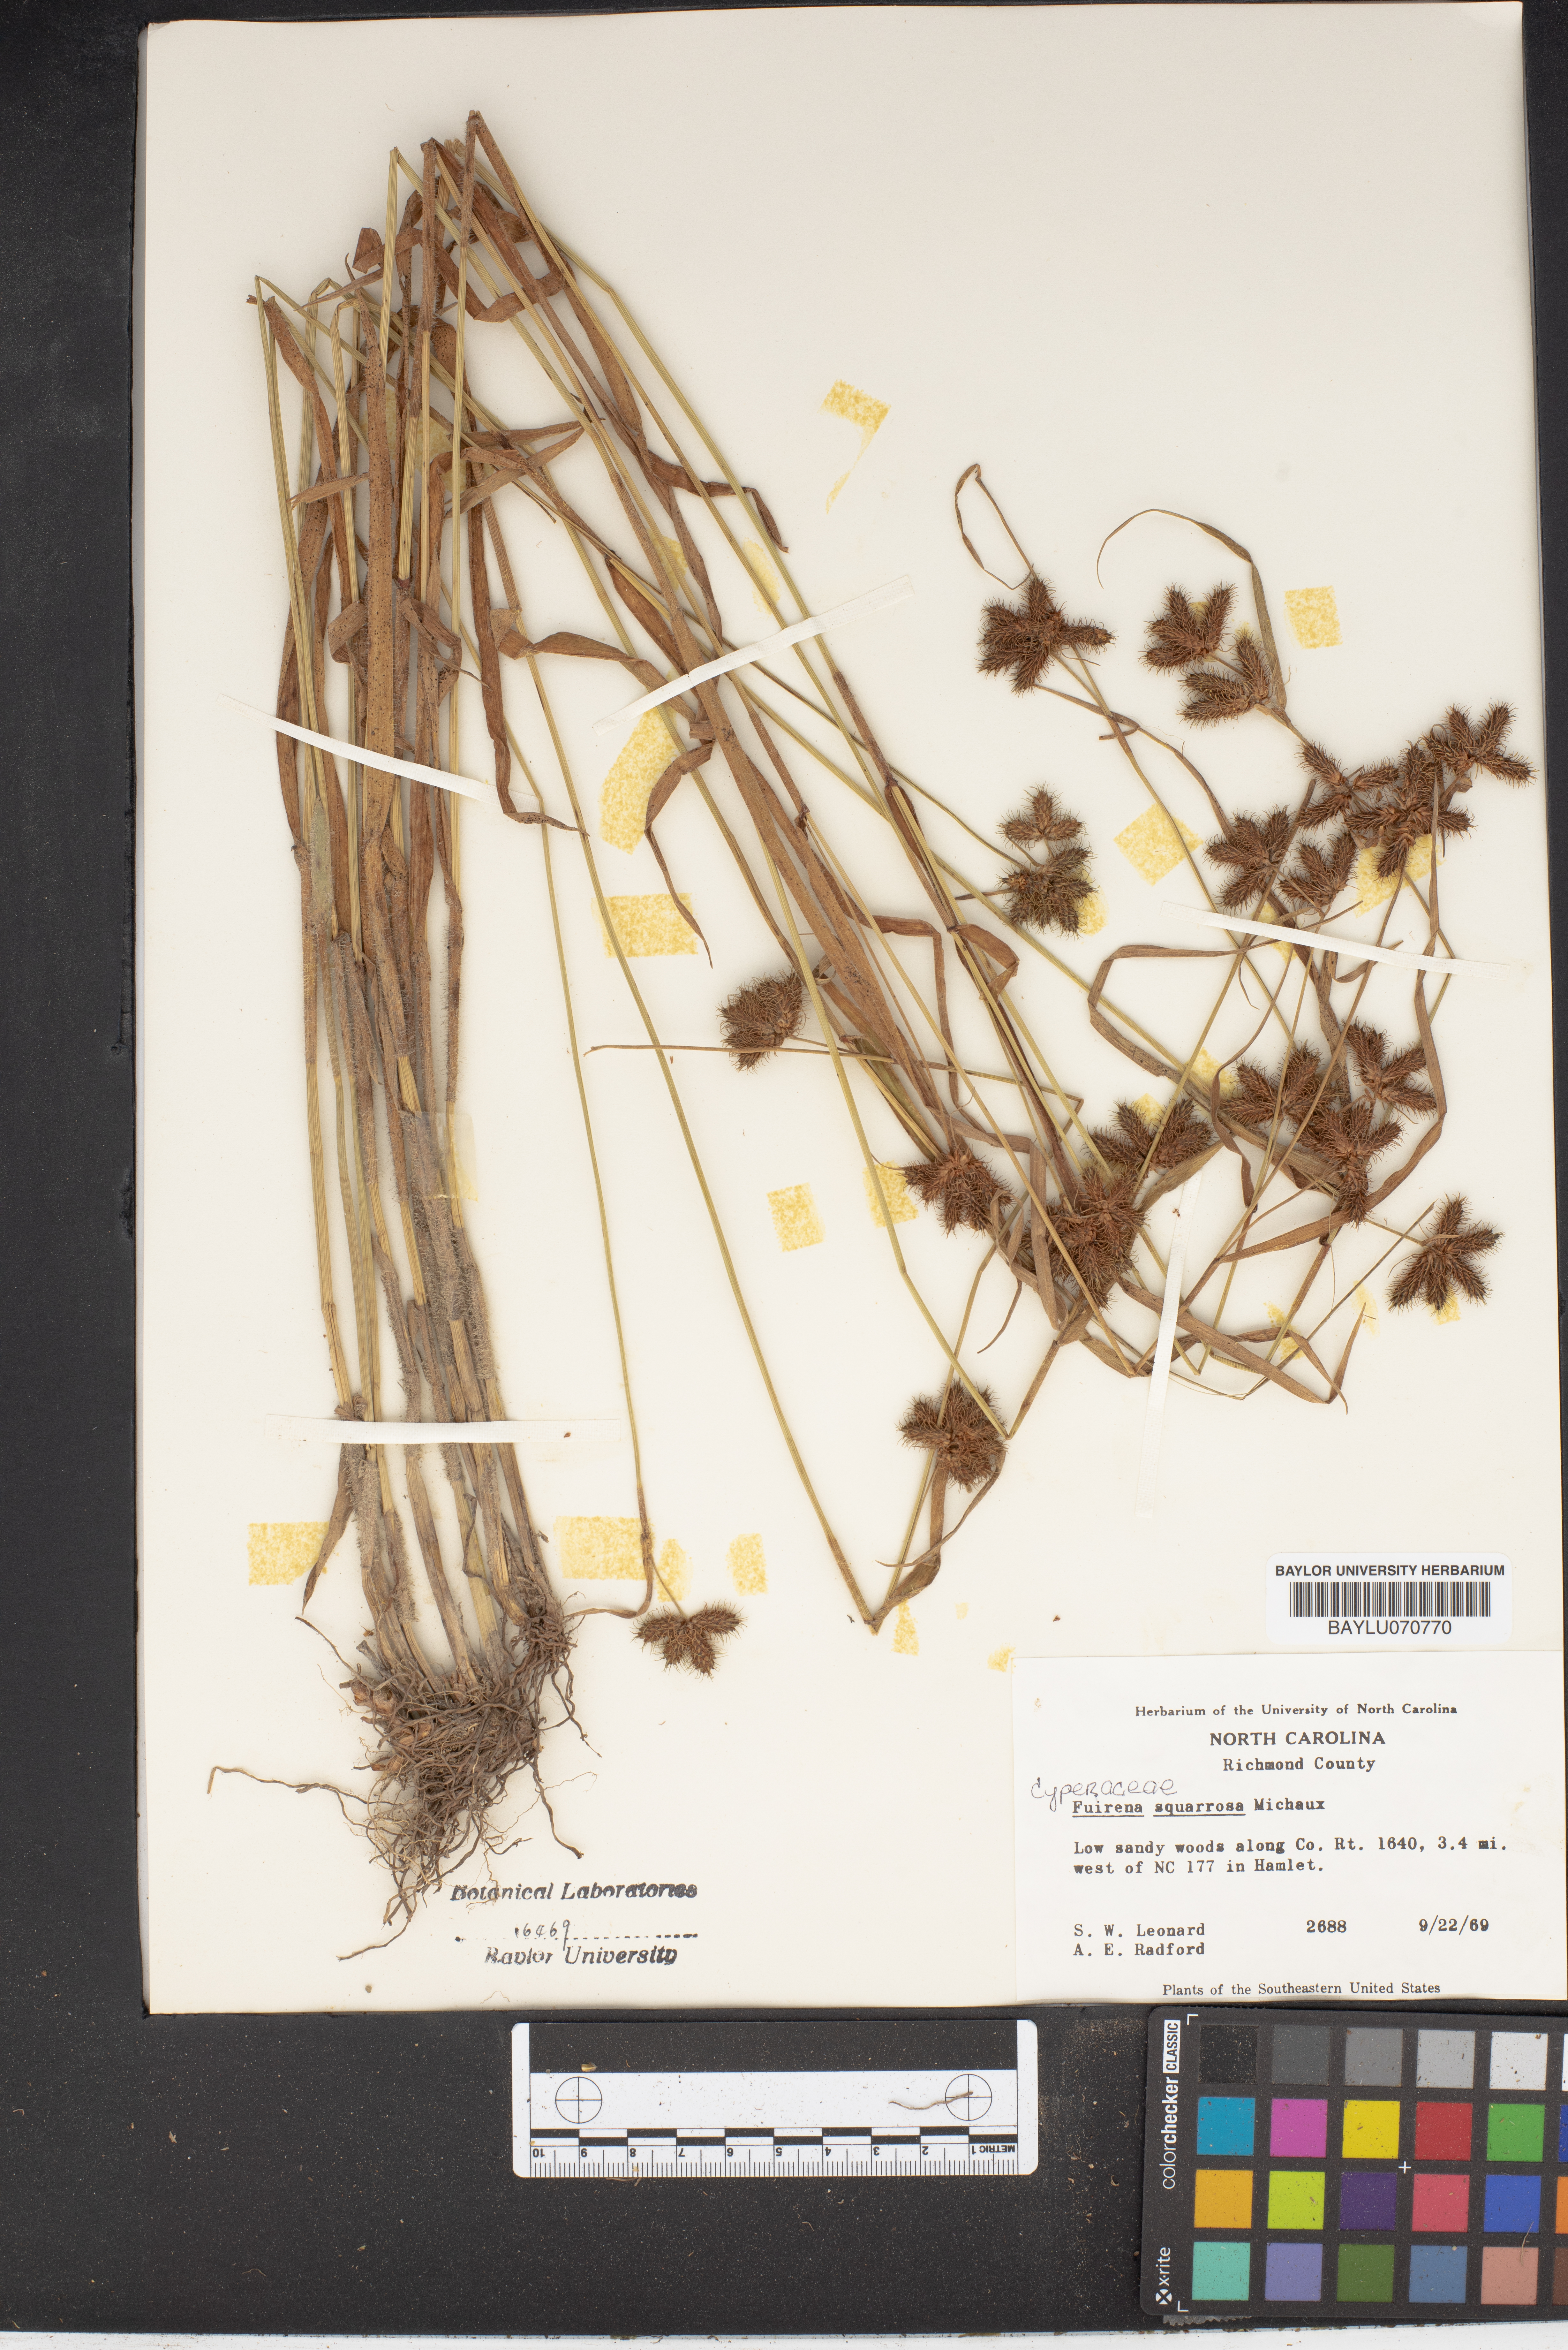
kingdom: Plantae
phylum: Tracheophyta
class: Liliopsida
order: Poales
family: Cyperaceae
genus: Fuirena
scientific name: Fuirena squarrosa
